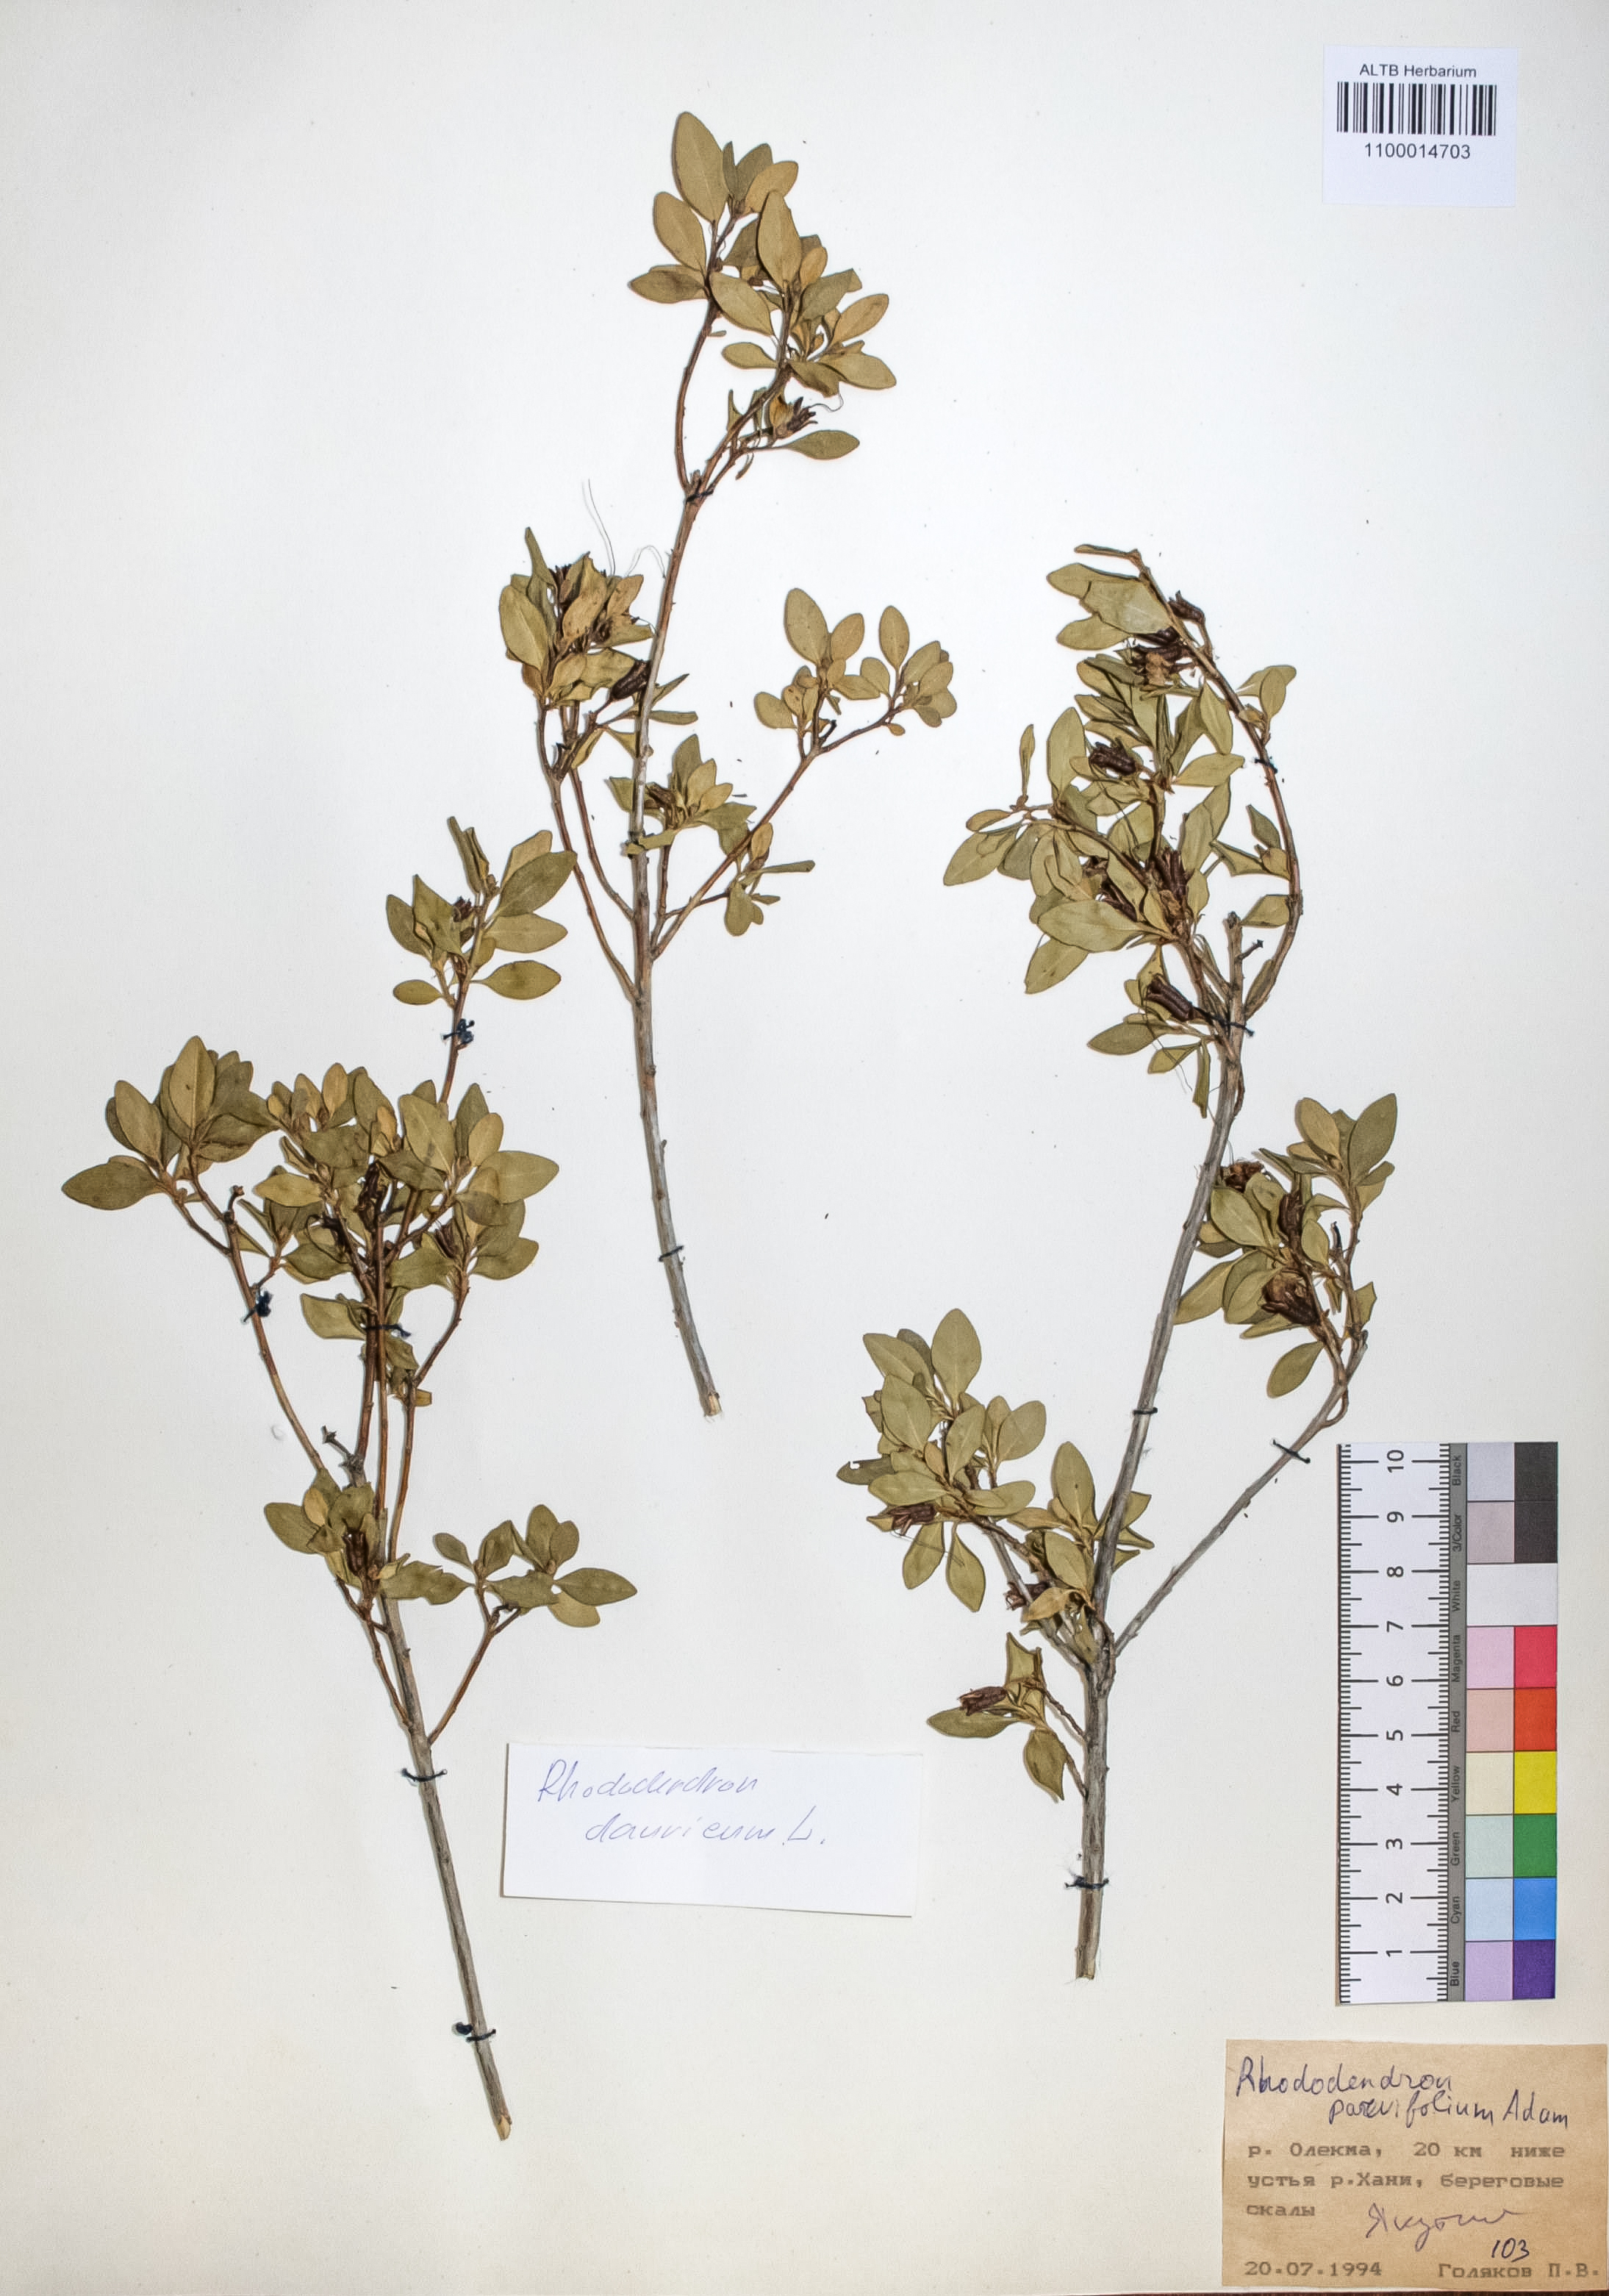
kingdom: Plantae
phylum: Tracheophyta
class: Magnoliopsida
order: Ericales
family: Ericaceae
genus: Rhododendron
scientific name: Rhododendron parvifolium
